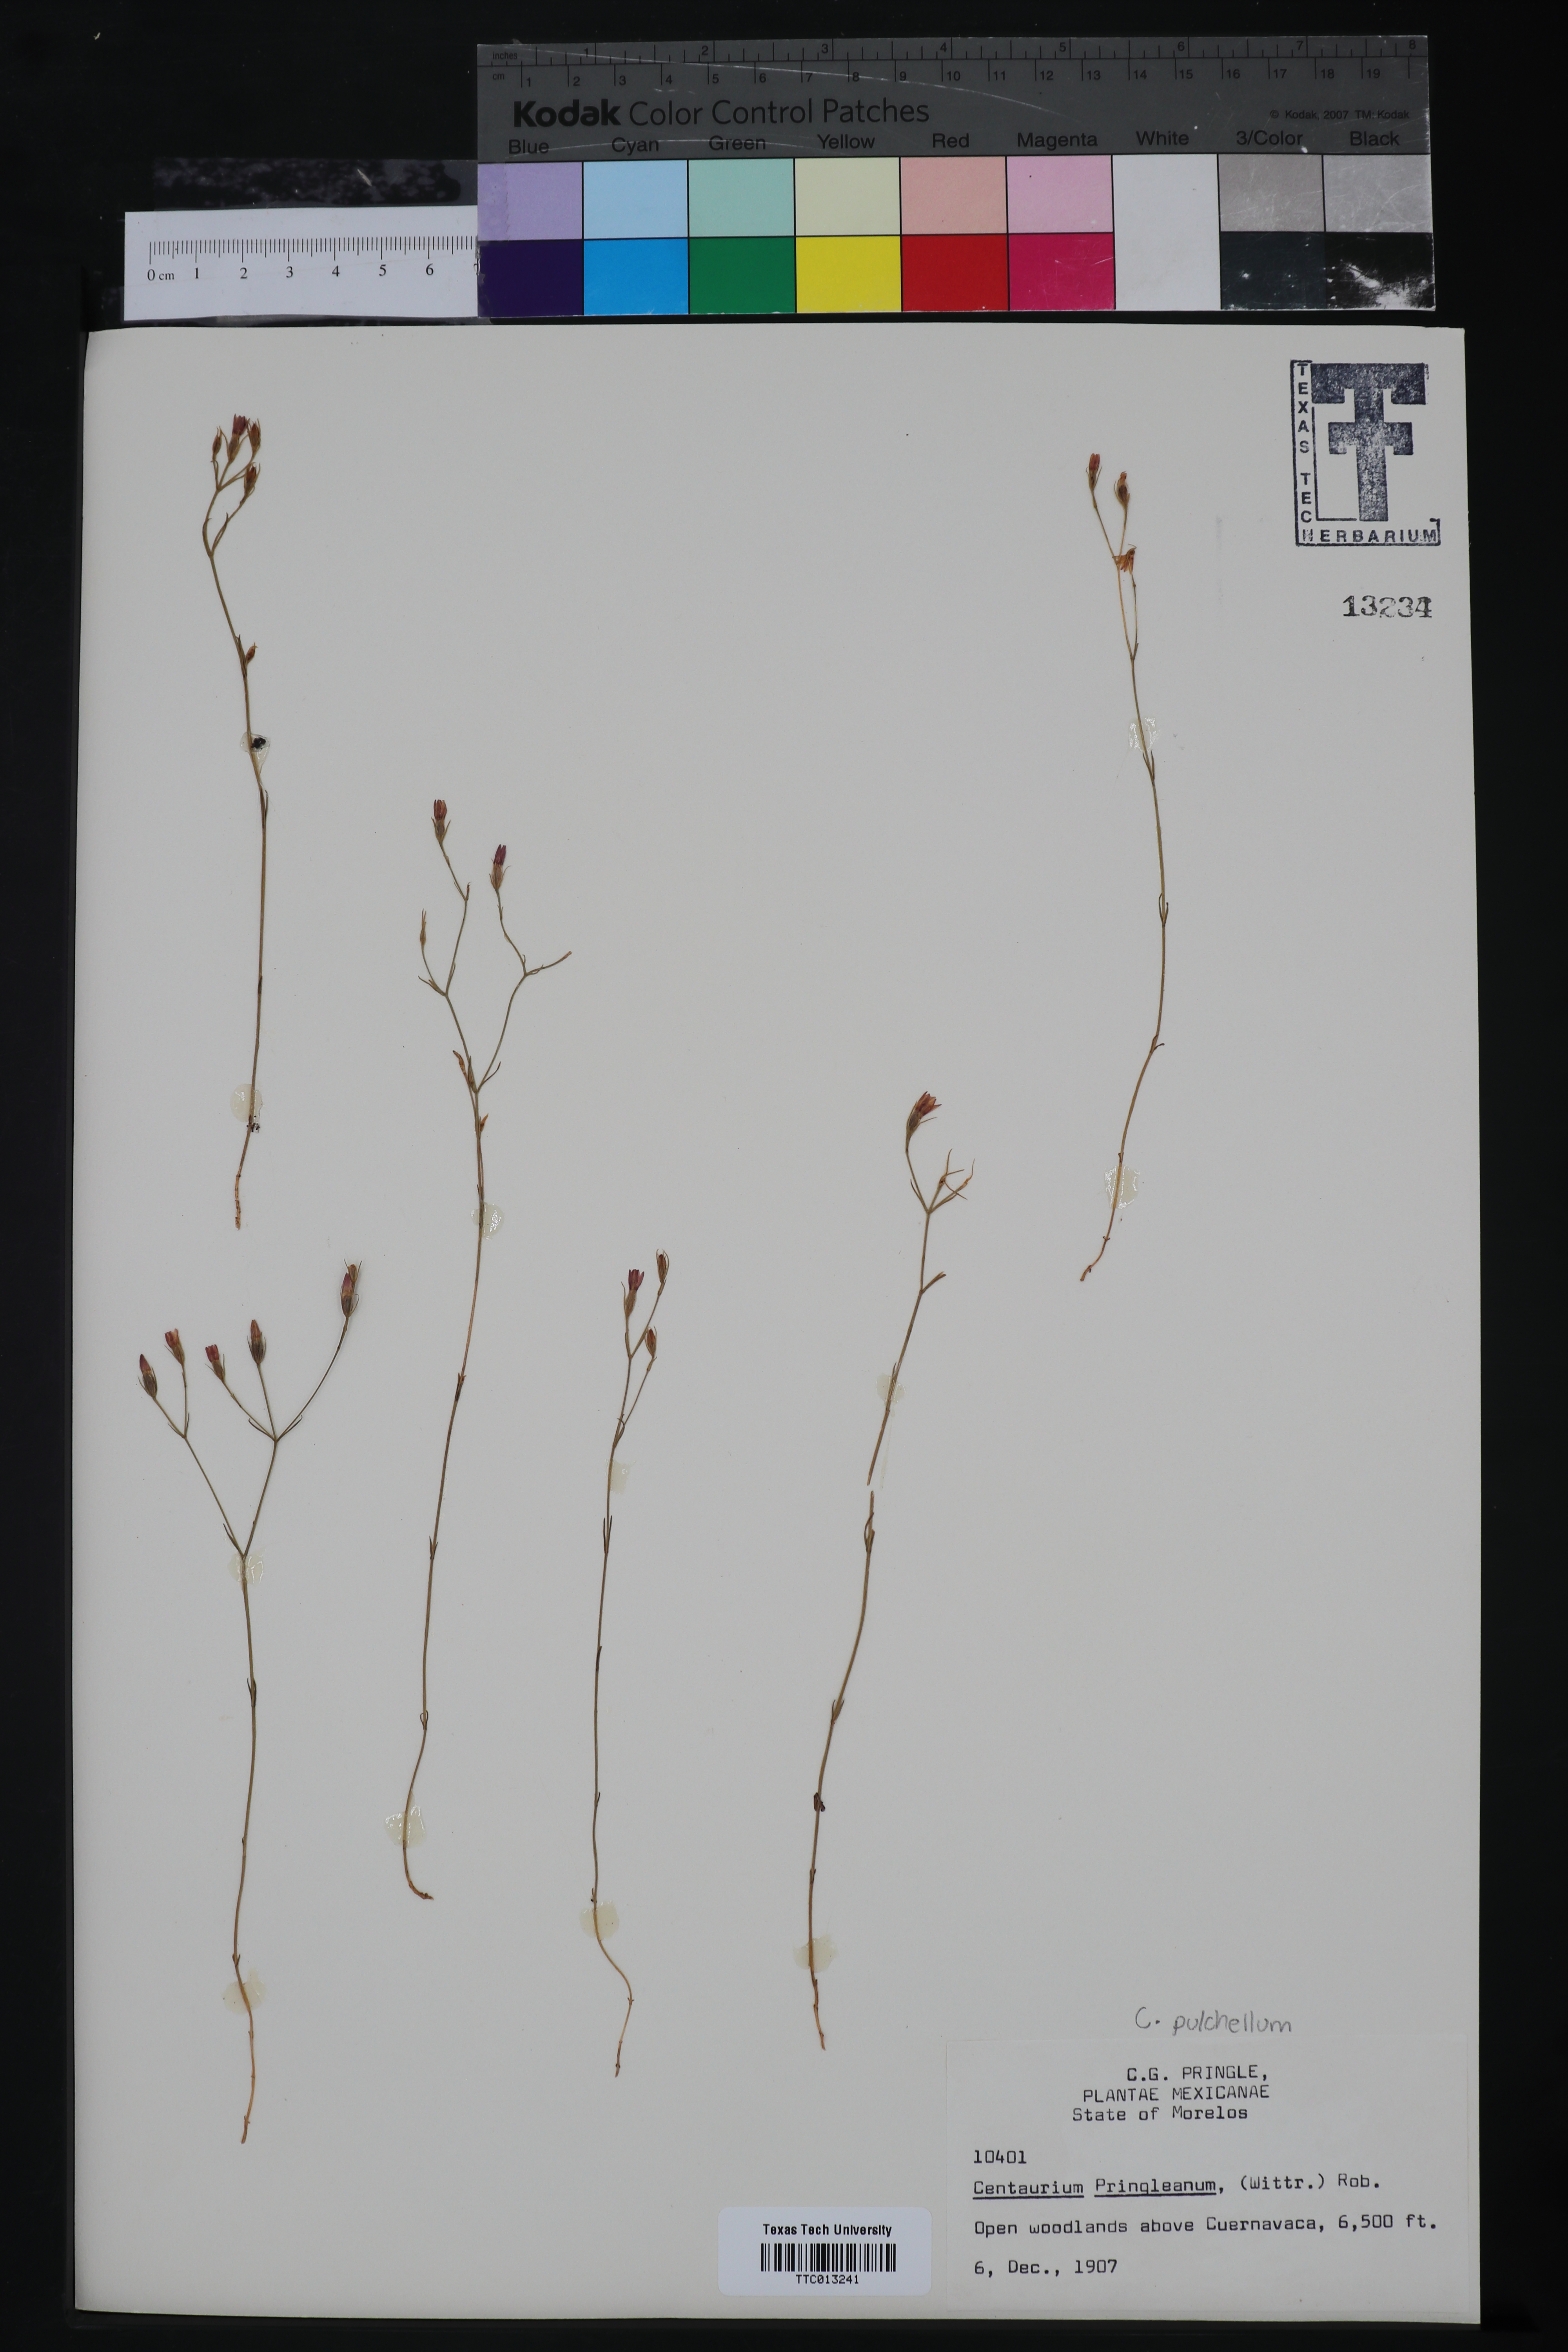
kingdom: Plantae
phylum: Tracheophyta
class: Magnoliopsida
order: Gentianales
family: Gentianaceae
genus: Zeltnera
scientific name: Zeltnera madrensis
